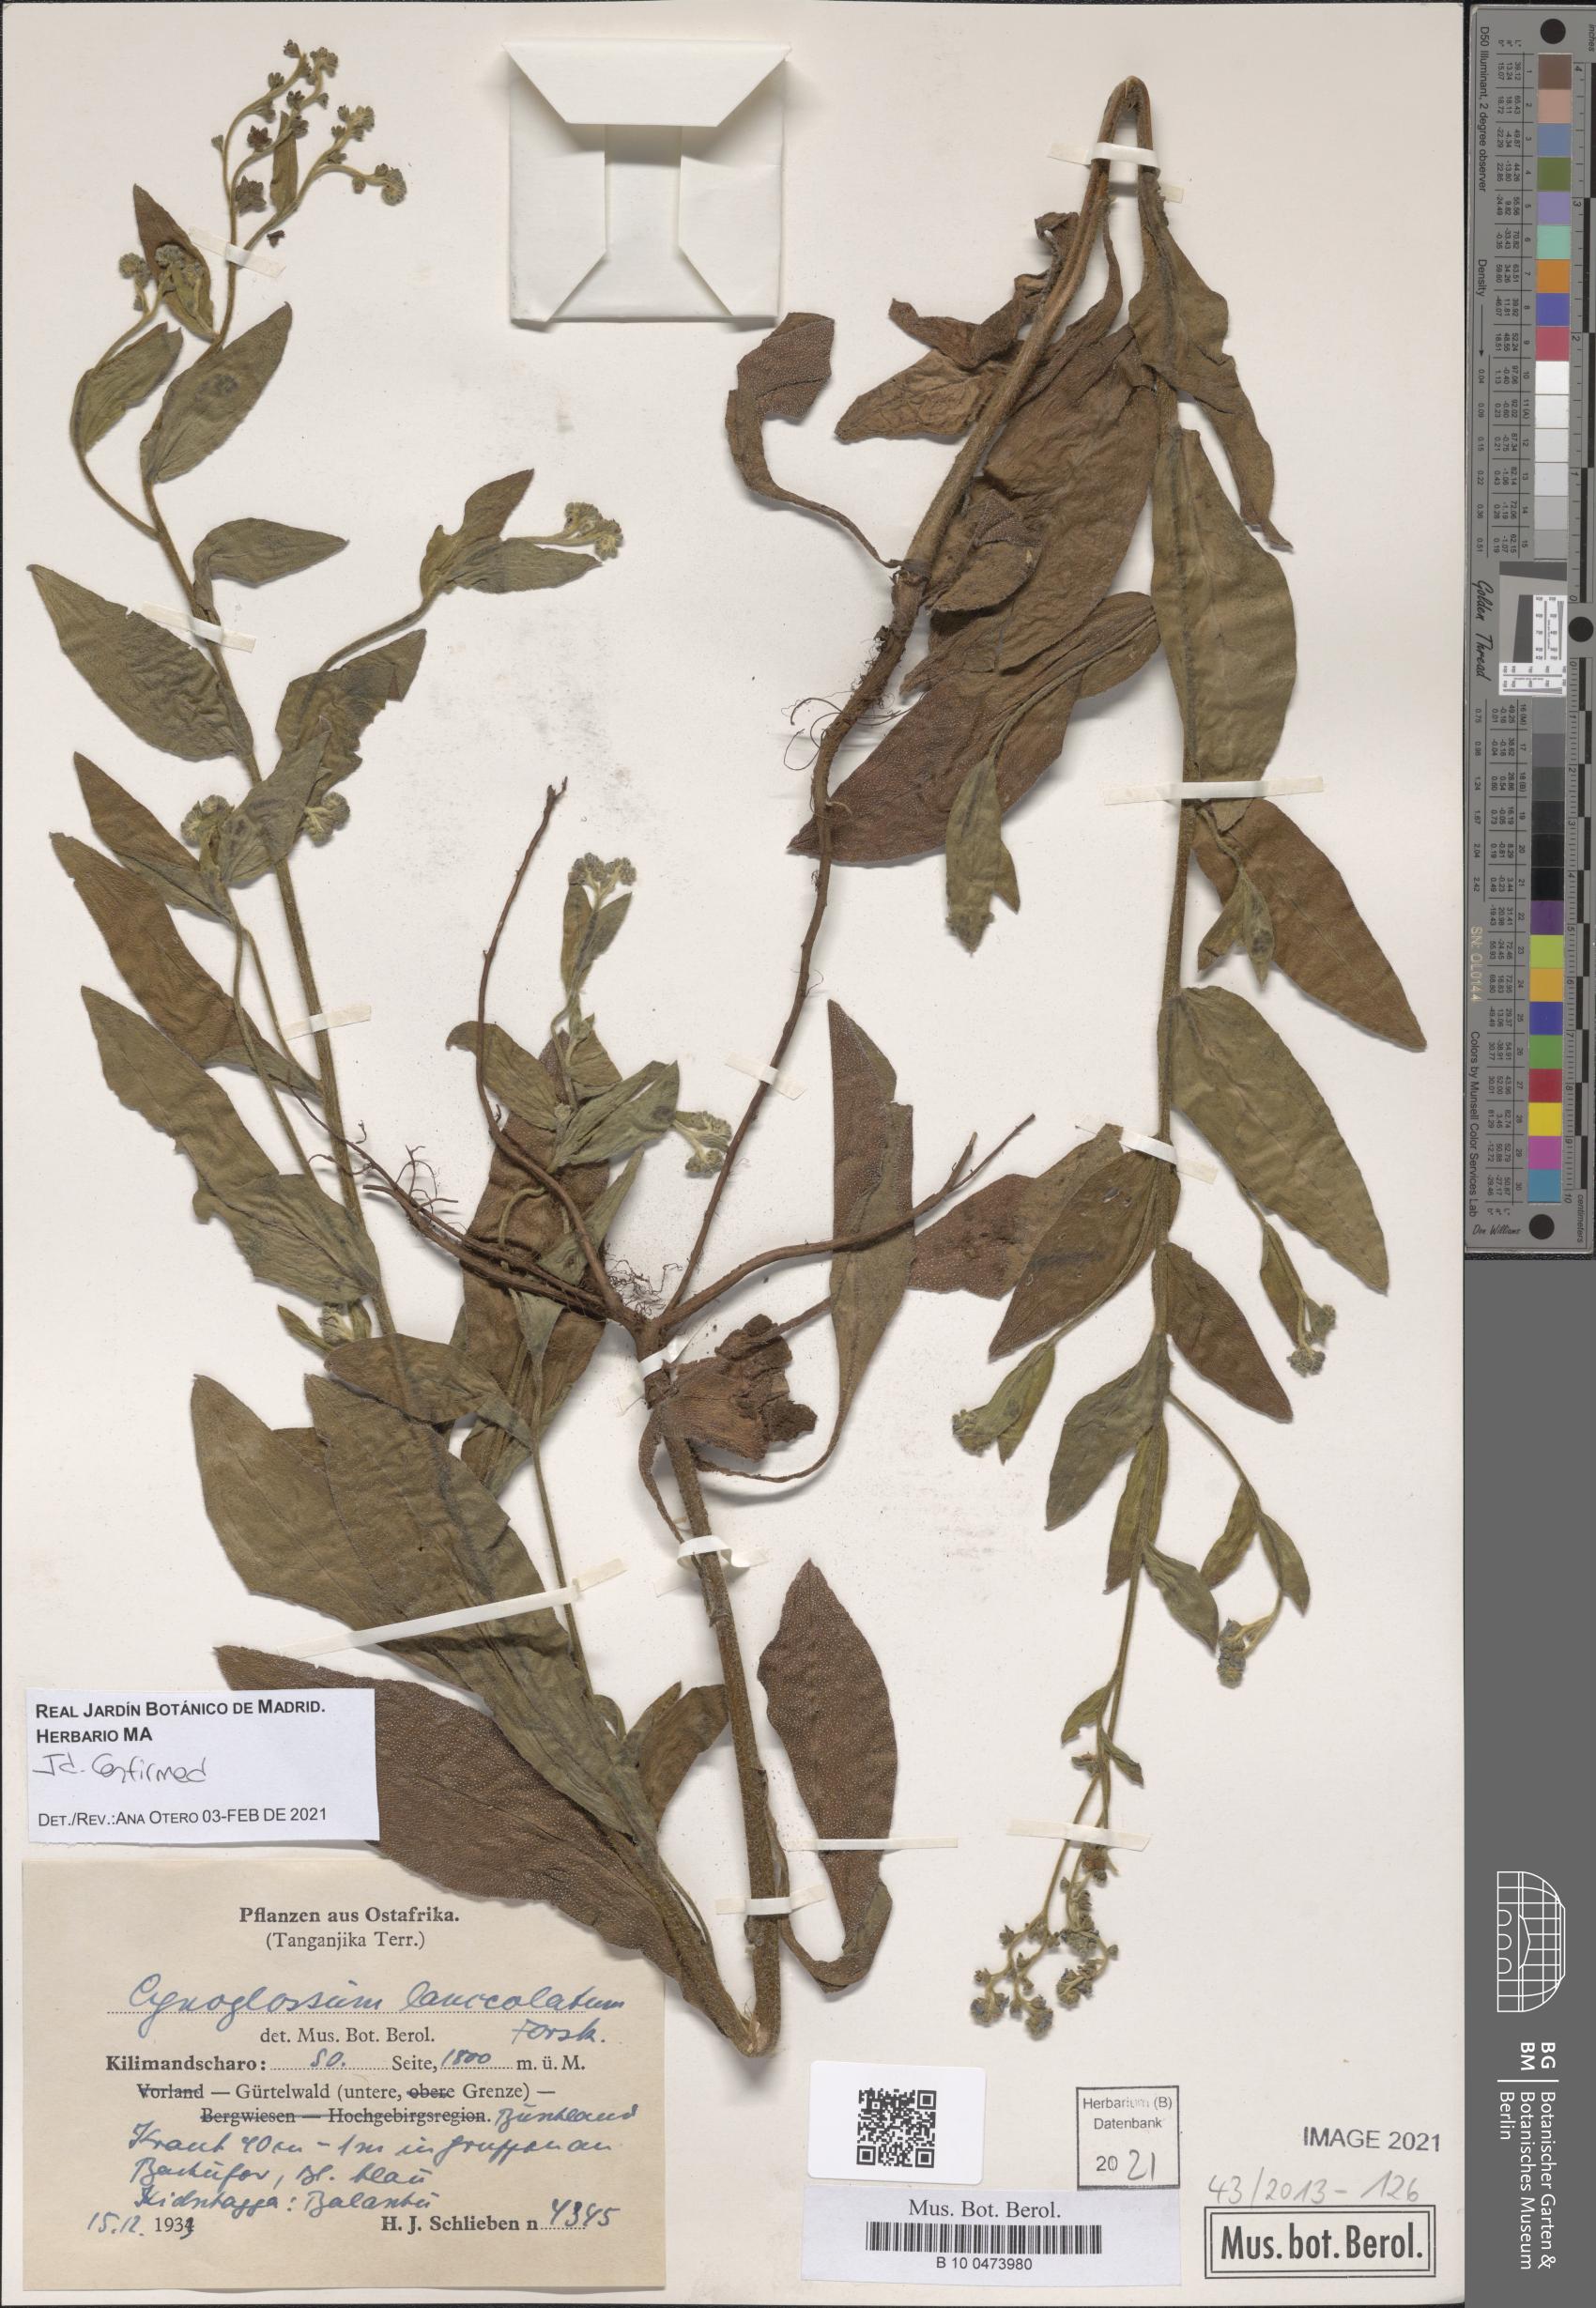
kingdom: Plantae
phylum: Tracheophyta
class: Magnoliopsida
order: Boraginales
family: Boraginaceae
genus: Paracynoglossum
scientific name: Paracynoglossum lanceolatum
